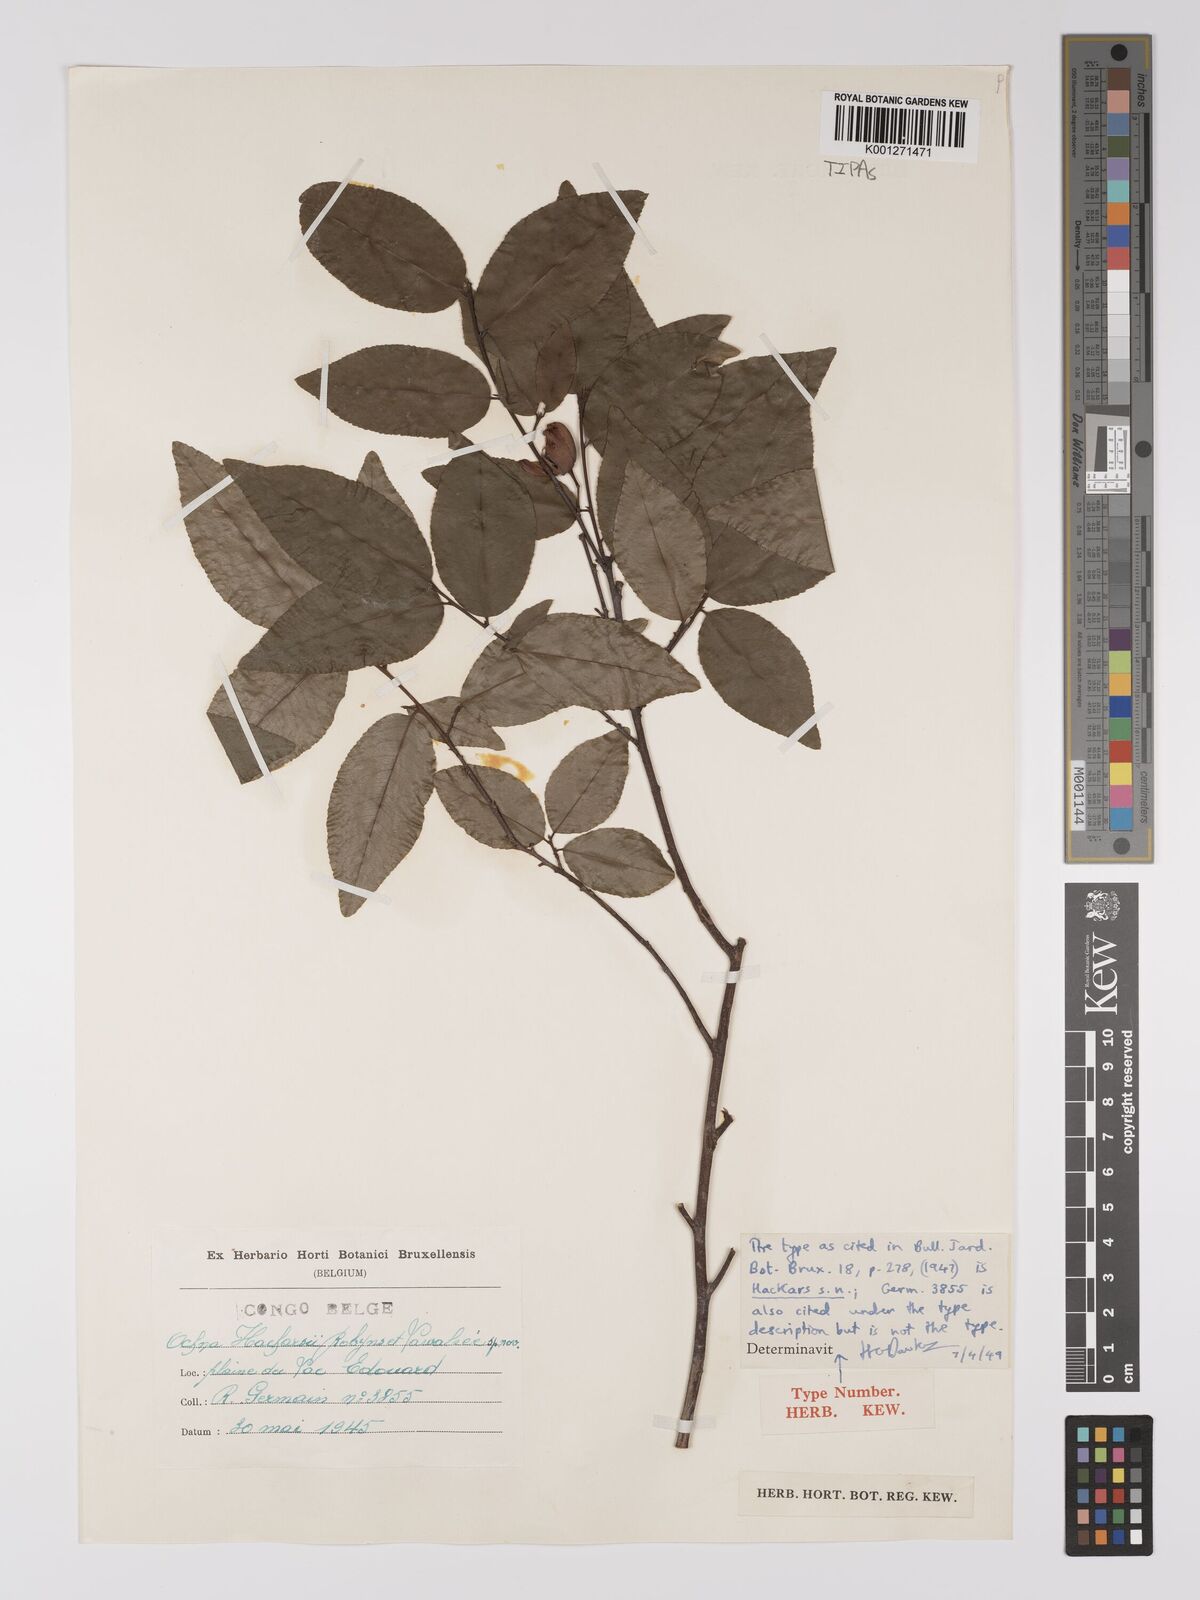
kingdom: Plantae
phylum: Tracheophyta
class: Magnoliopsida
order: Malpighiales
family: Ochnaceae
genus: Ochna
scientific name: Ochna hackarsii
